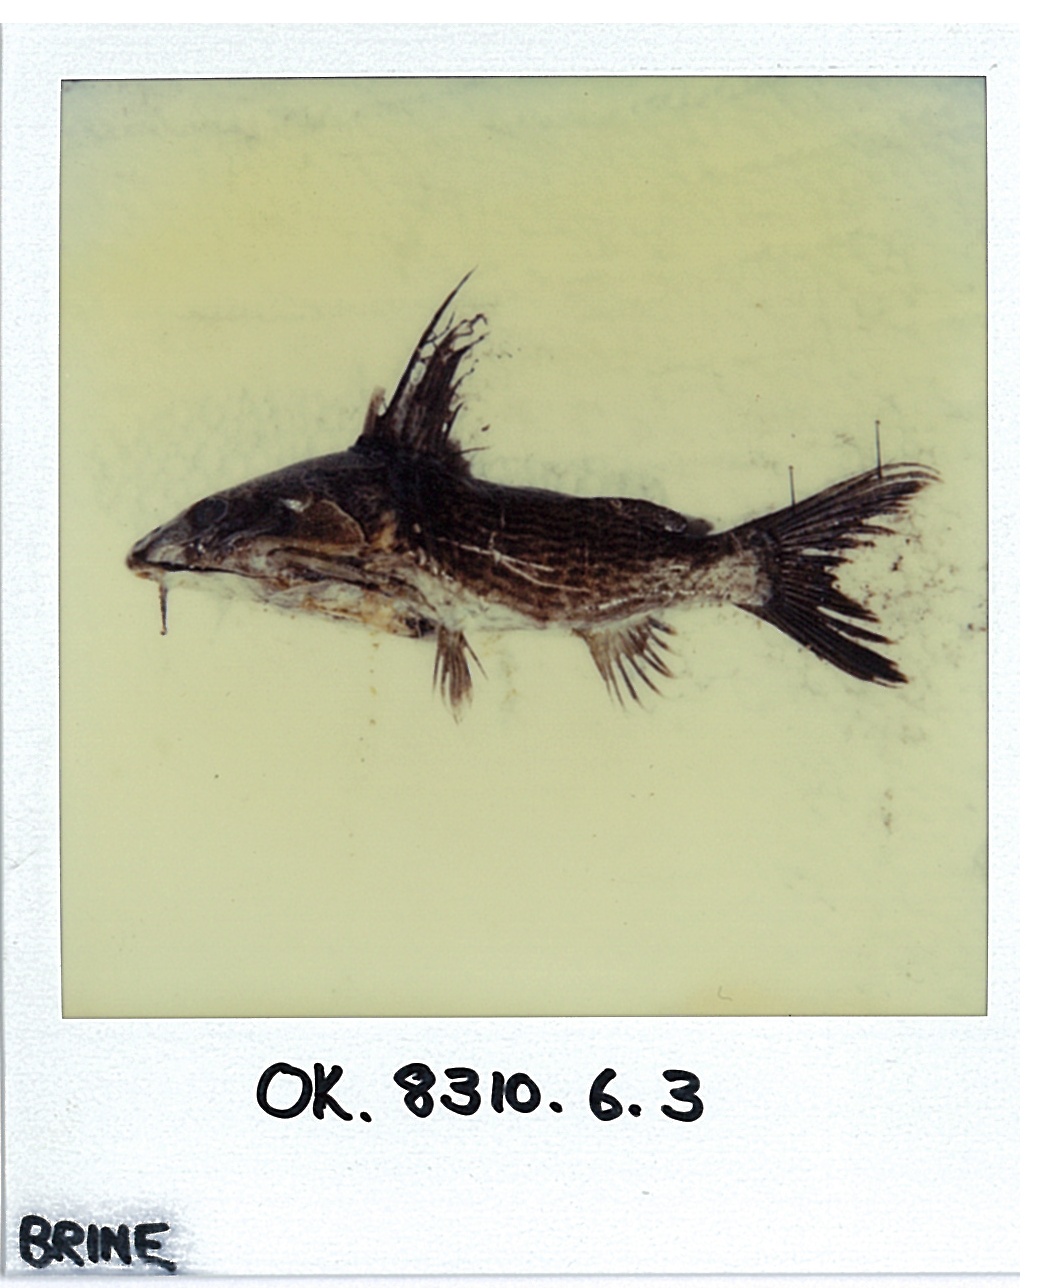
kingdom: Animalia
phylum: Chordata
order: Siluriformes
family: Mochokidae
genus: Synodontis
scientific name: Synodontis leopardinus
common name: Leopard squeaker
